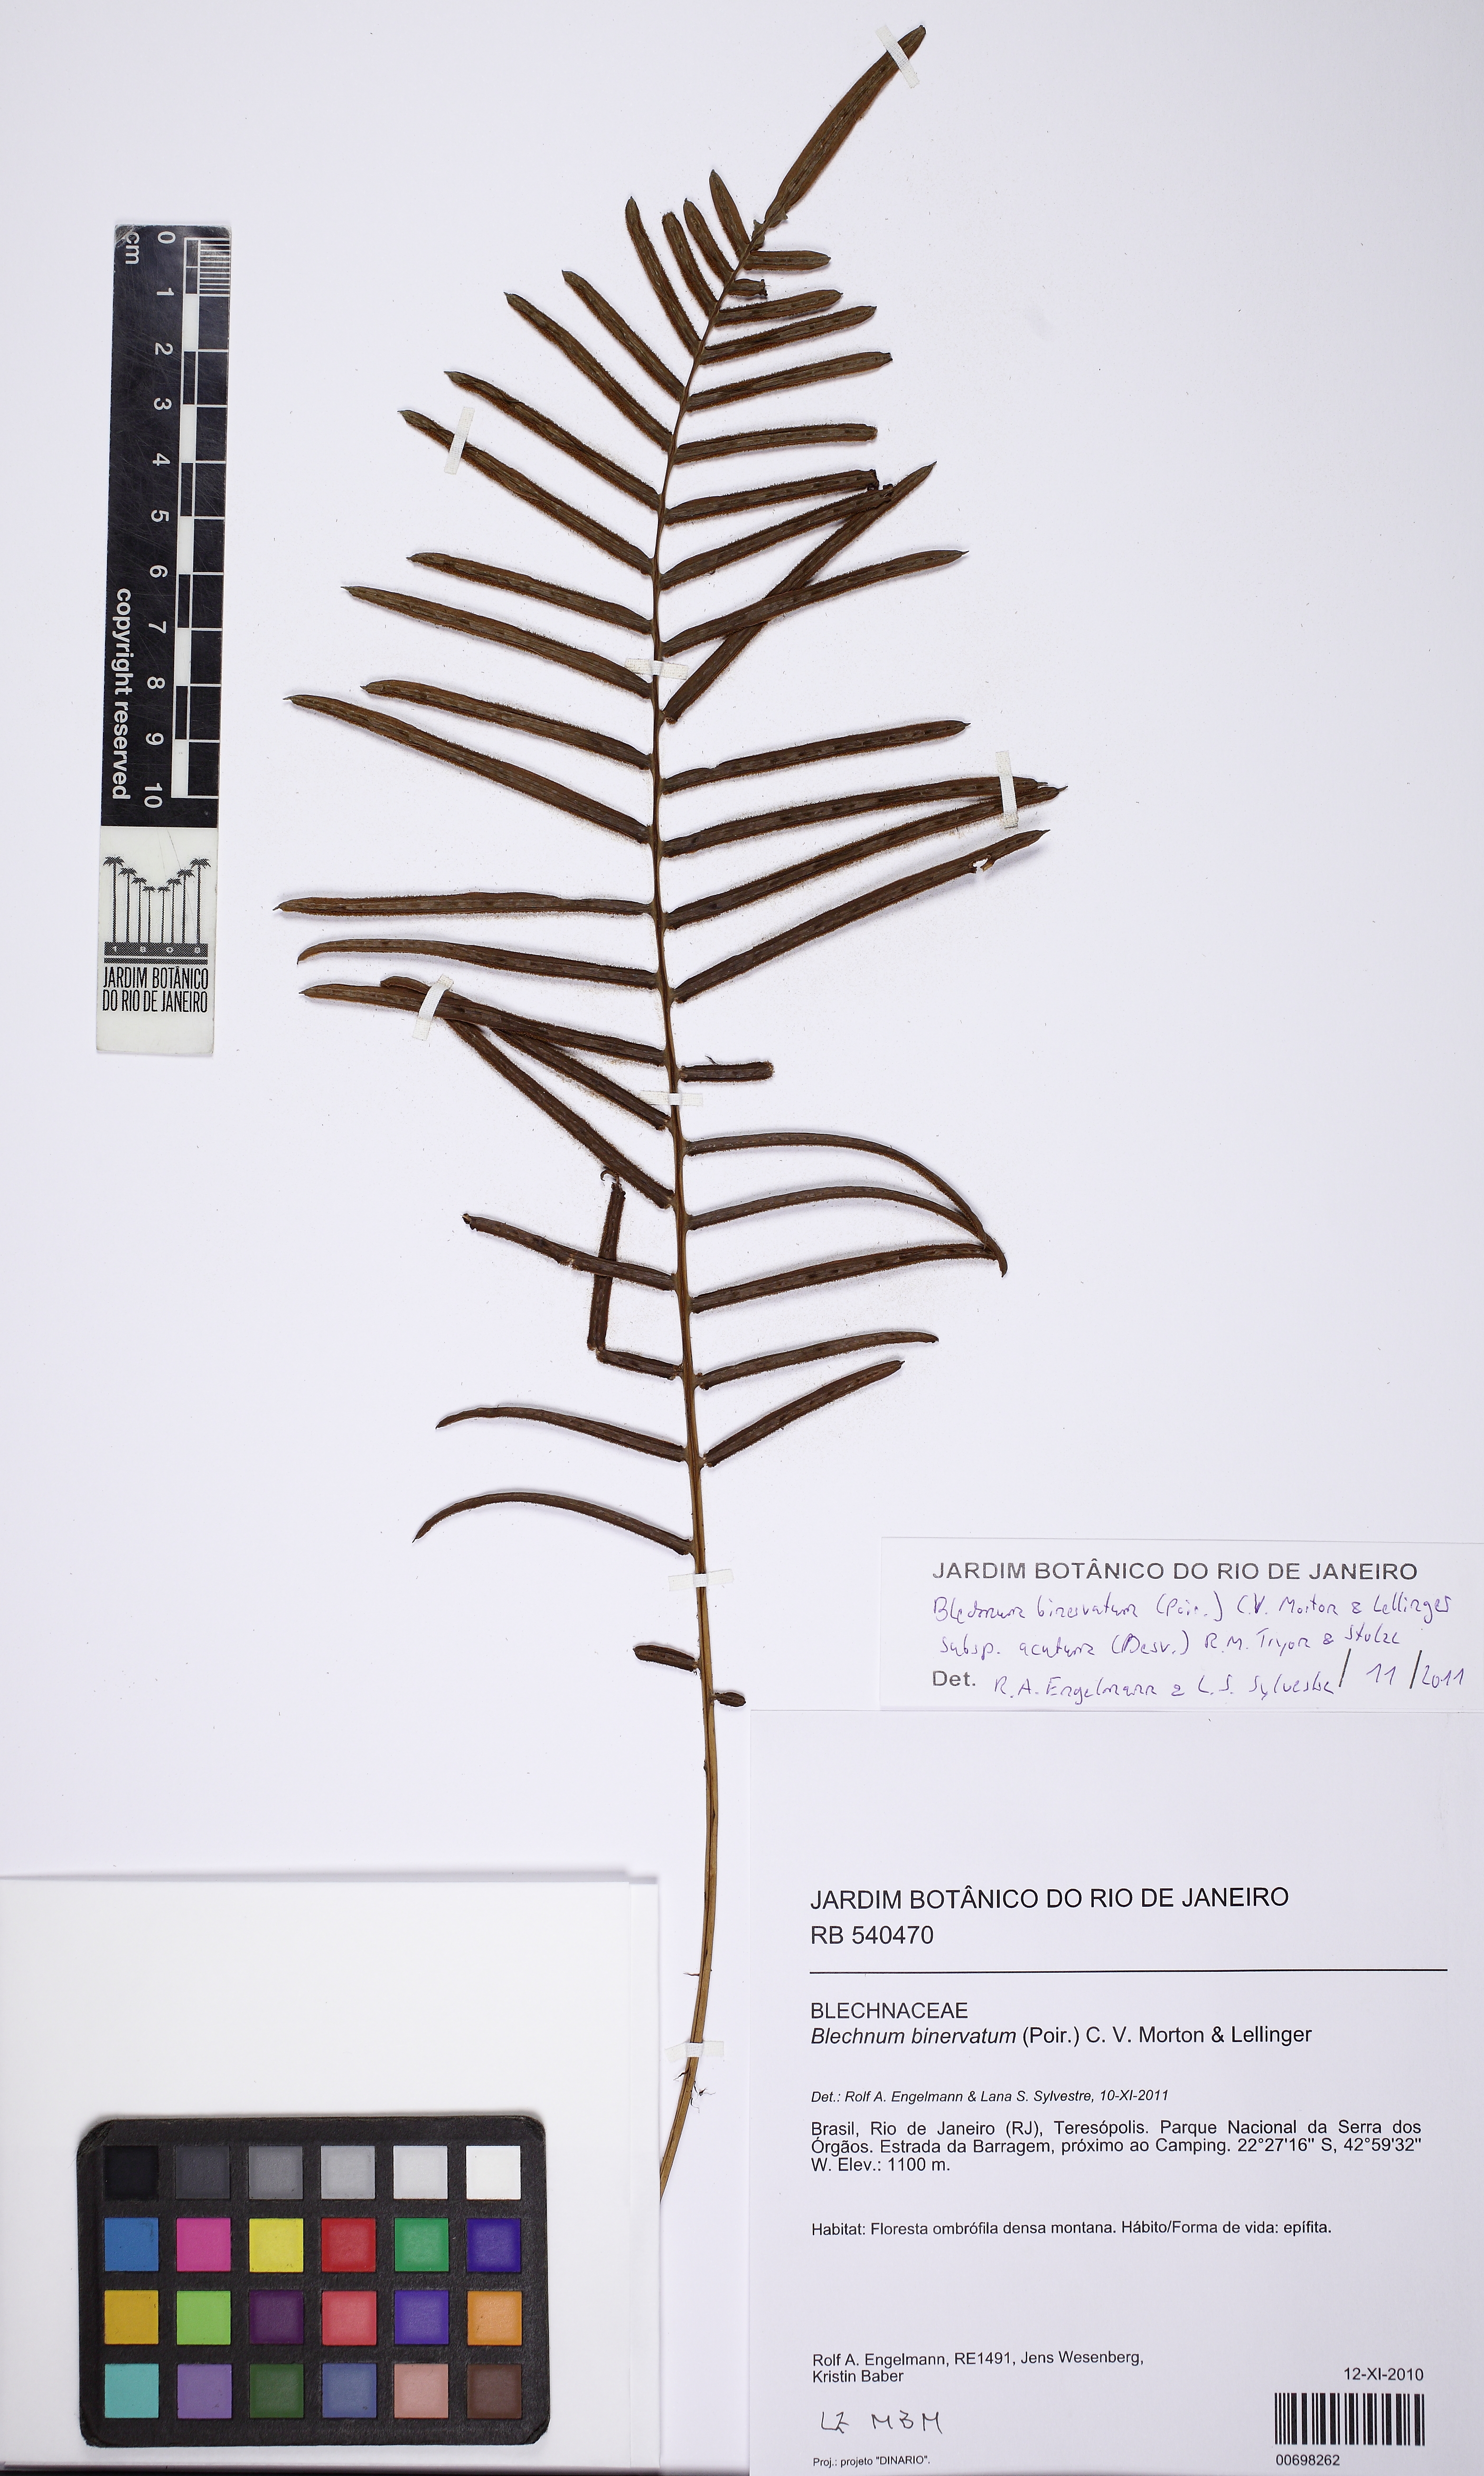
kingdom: Plantae
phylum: Tracheophyta
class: Polypodiopsida
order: Polypodiales
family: Blechnaceae
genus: Lomaridium
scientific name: Lomaridium acutum
